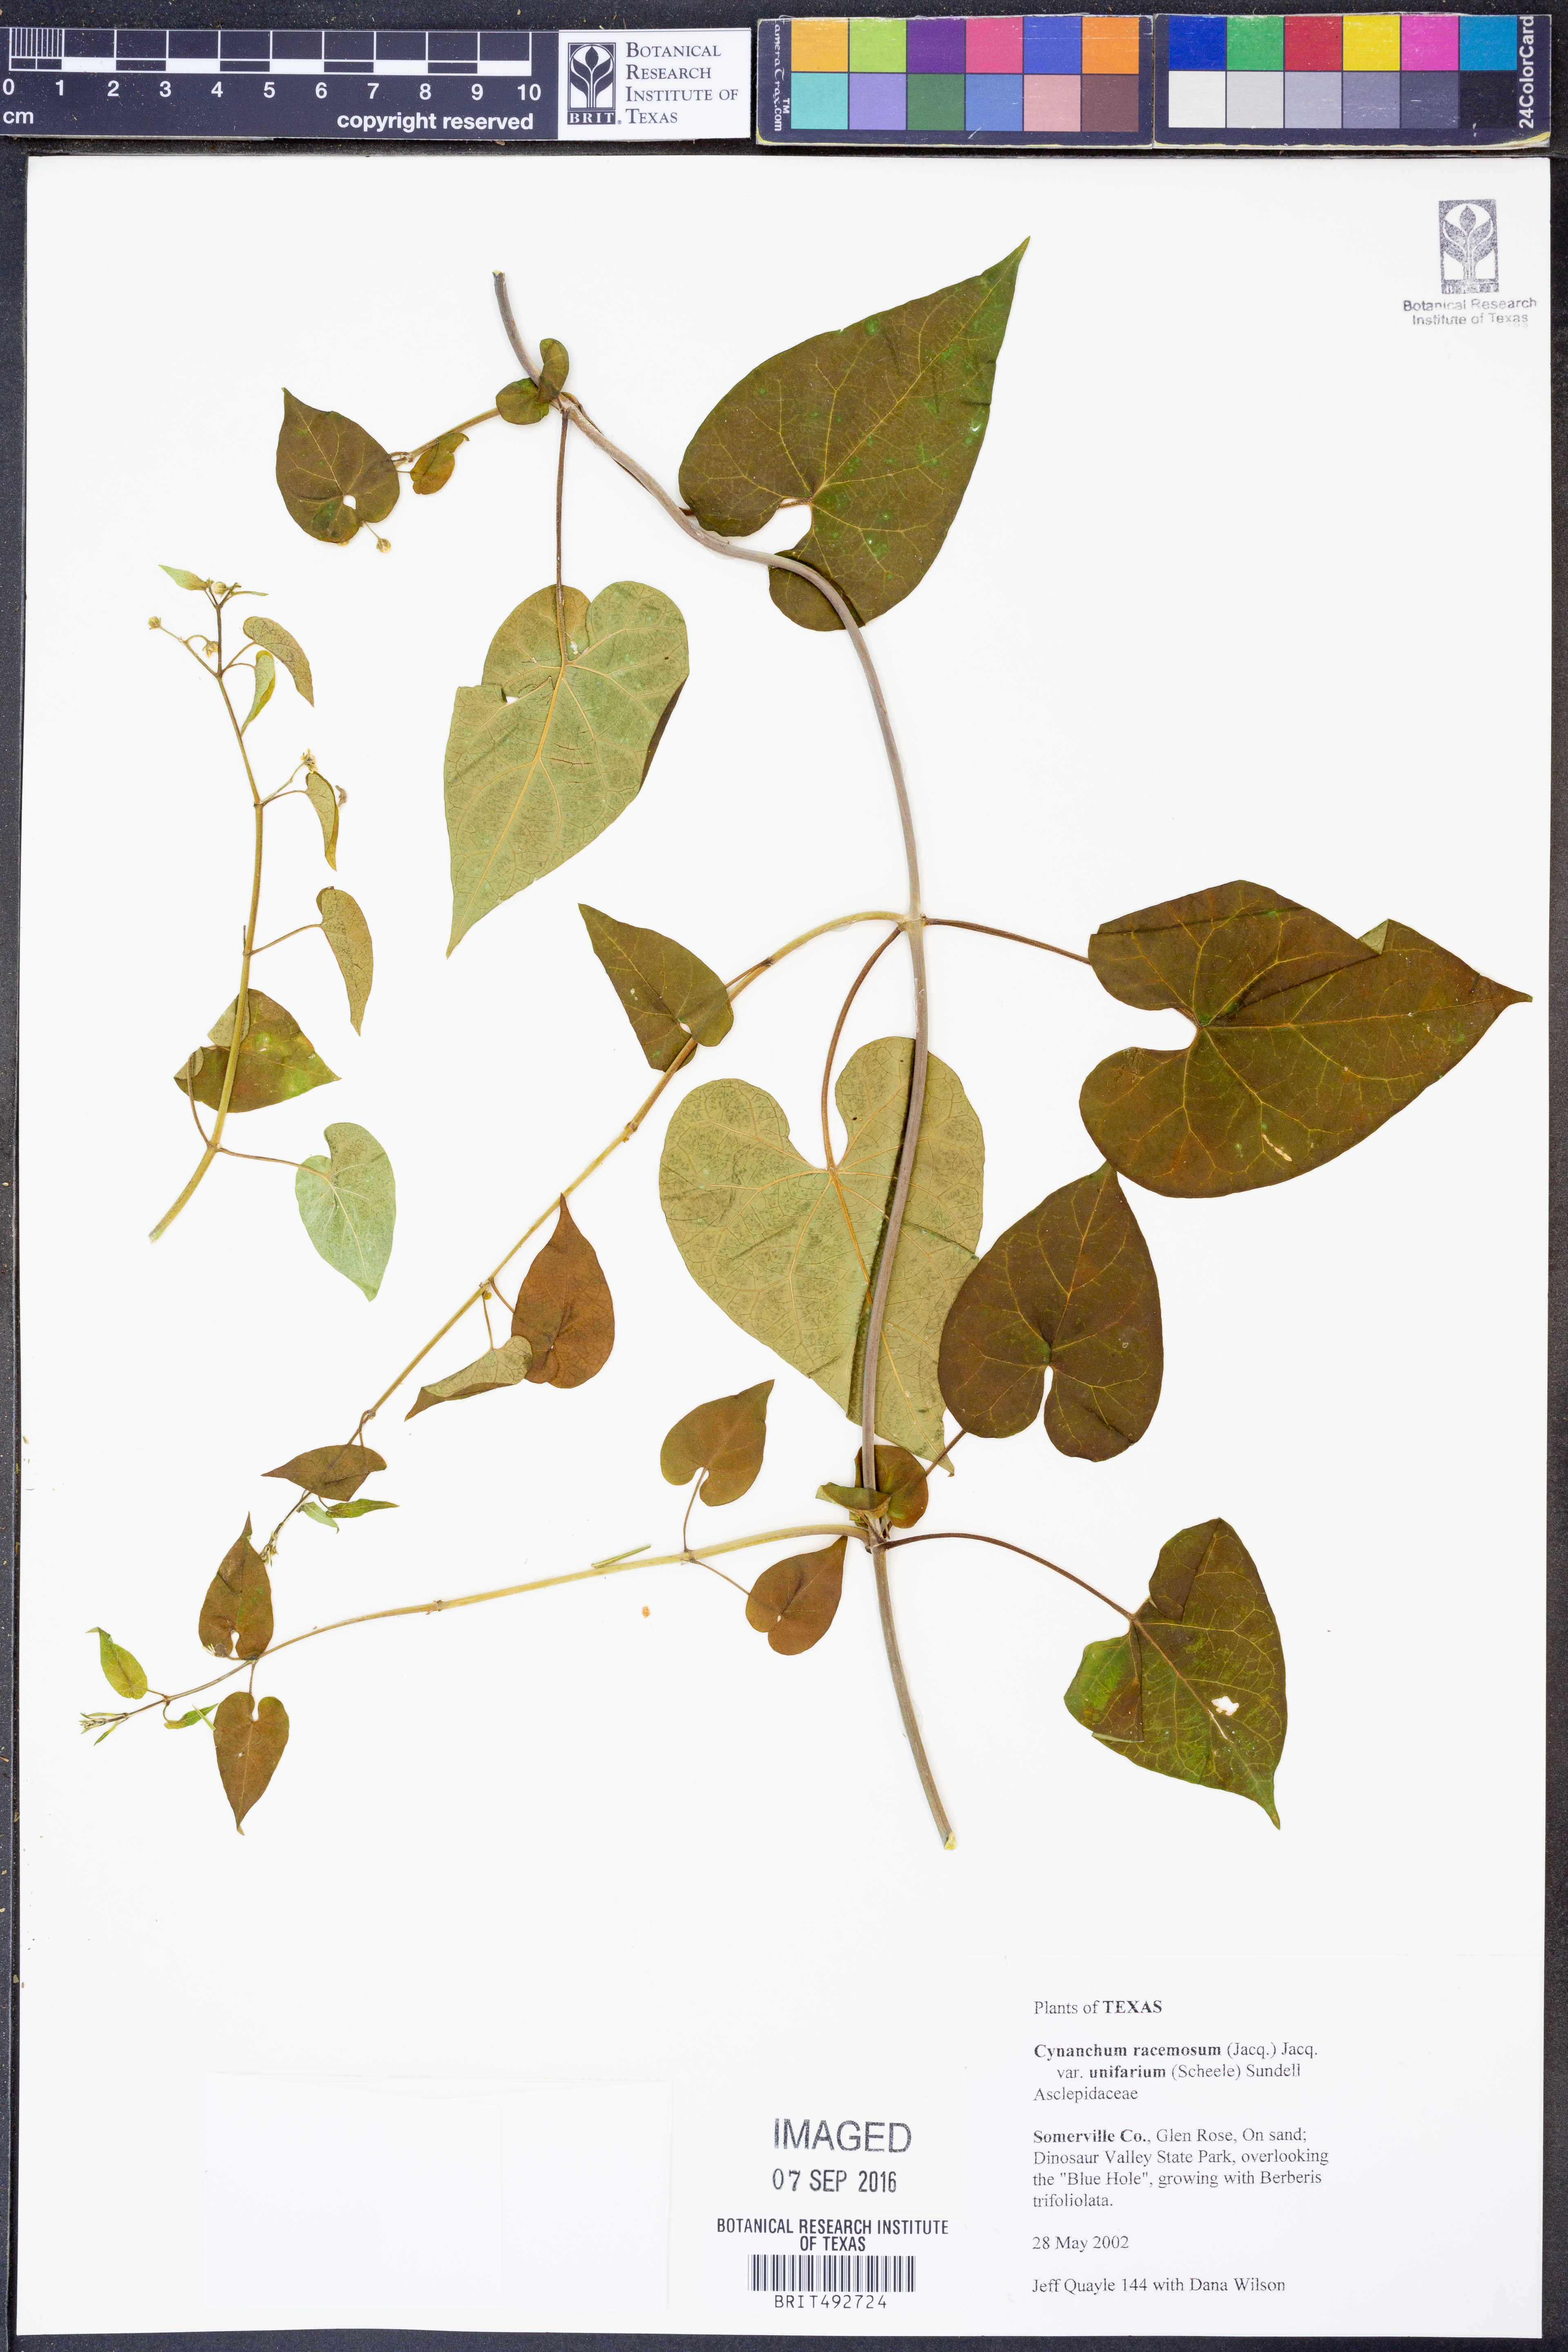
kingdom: Plantae
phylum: Tracheophyta
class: Magnoliopsida
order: Gentianales
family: Apocynaceae
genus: Cynanchum
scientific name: Cynanchum racemosum
